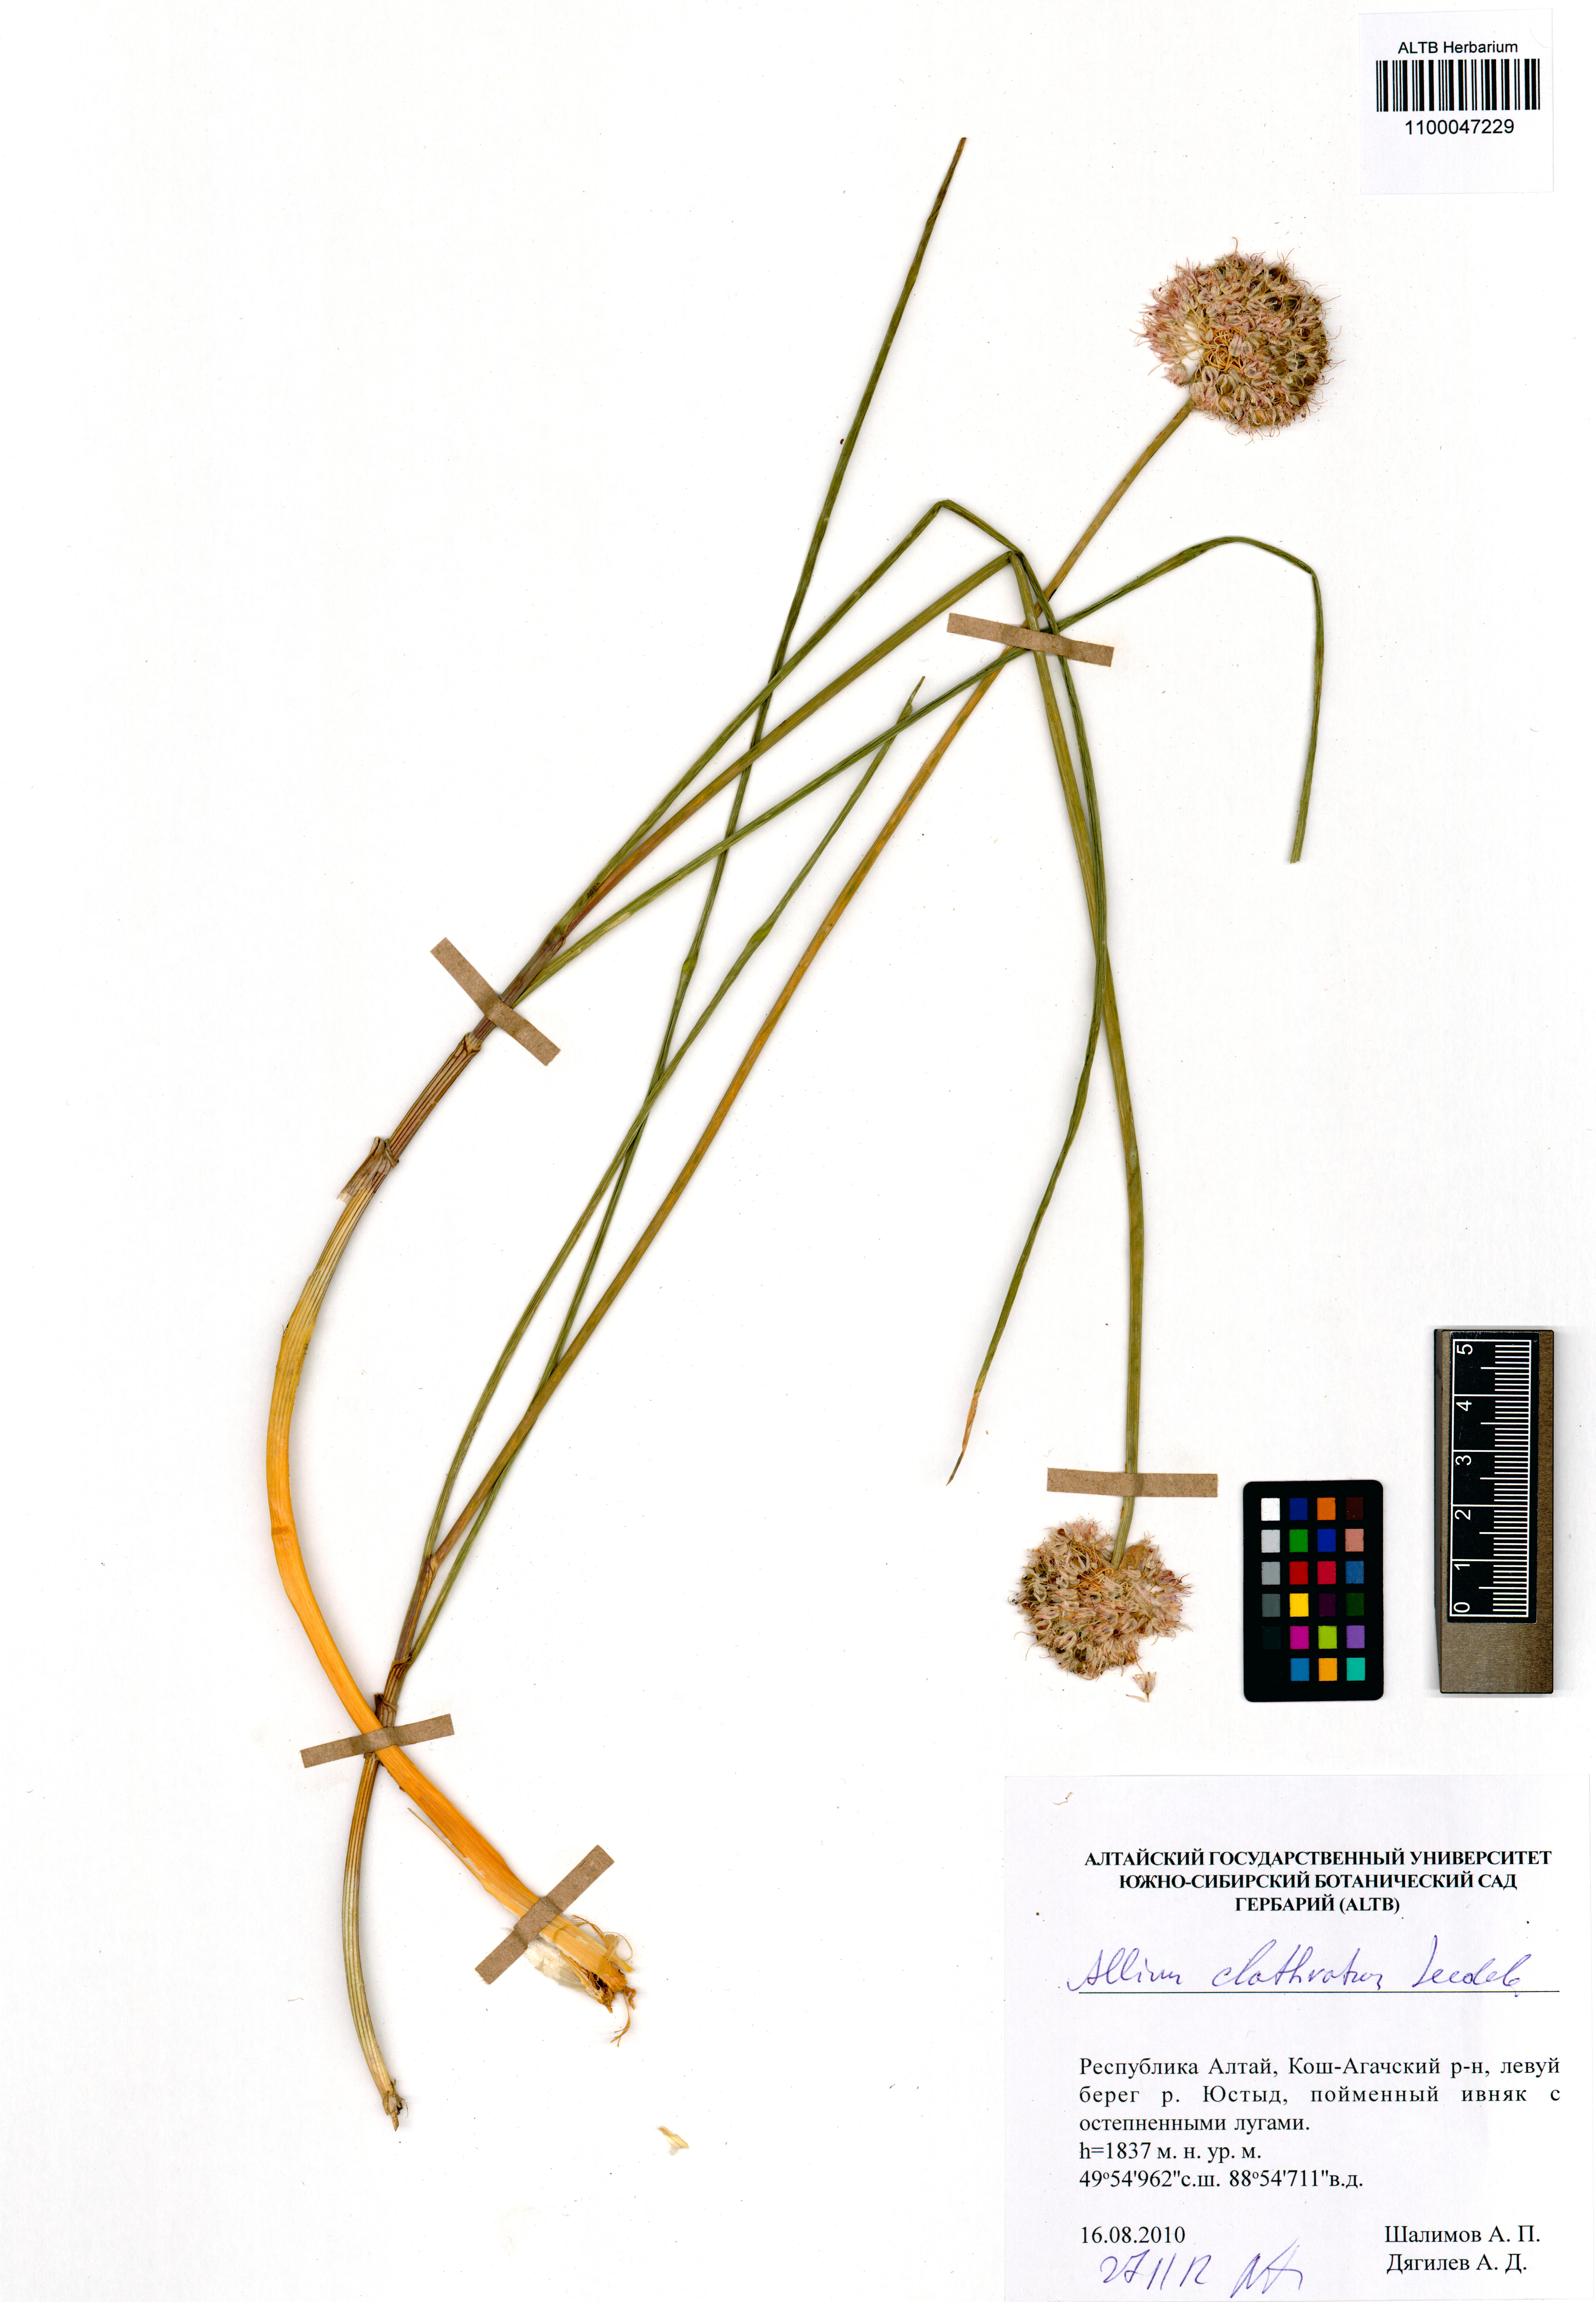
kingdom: Plantae
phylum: Tracheophyta
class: Liliopsida
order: Asparagales
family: Amaryllidaceae
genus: Allium
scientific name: Allium clathratum
